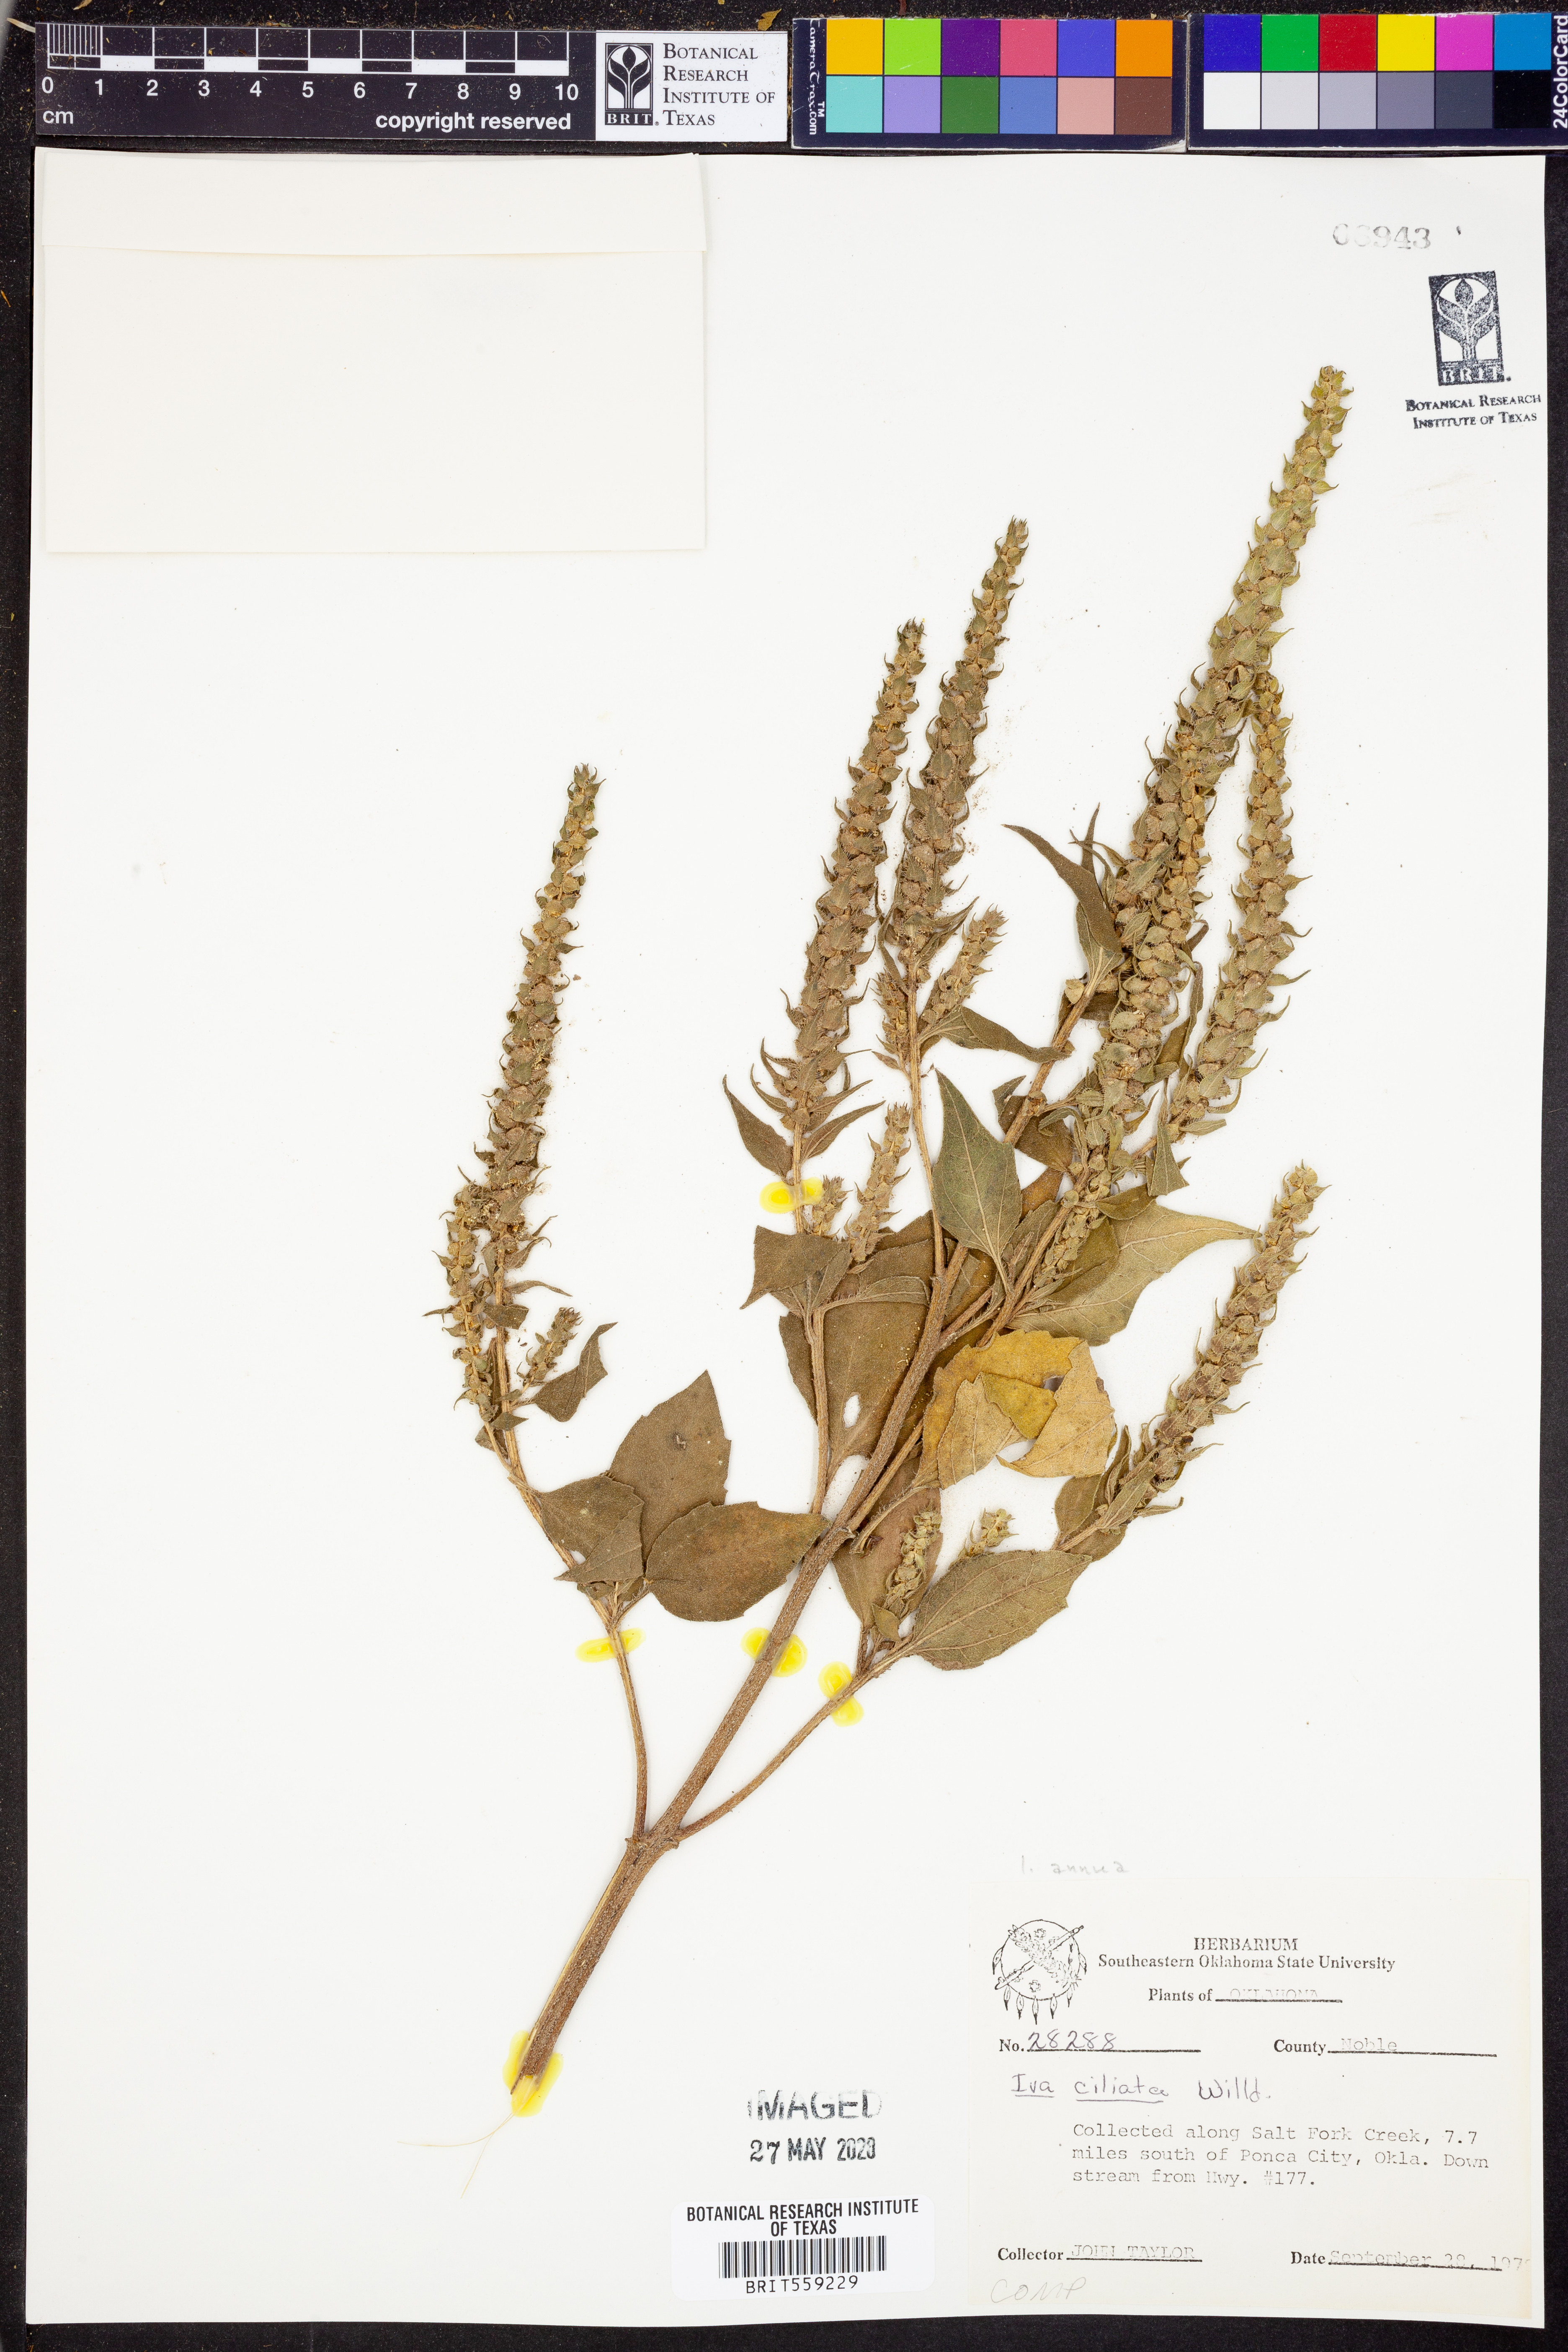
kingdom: Plantae
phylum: Tracheophyta
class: Magnoliopsida
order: Asterales
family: Asteraceae
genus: Iva
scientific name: Iva annua
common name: Marsh-elder
